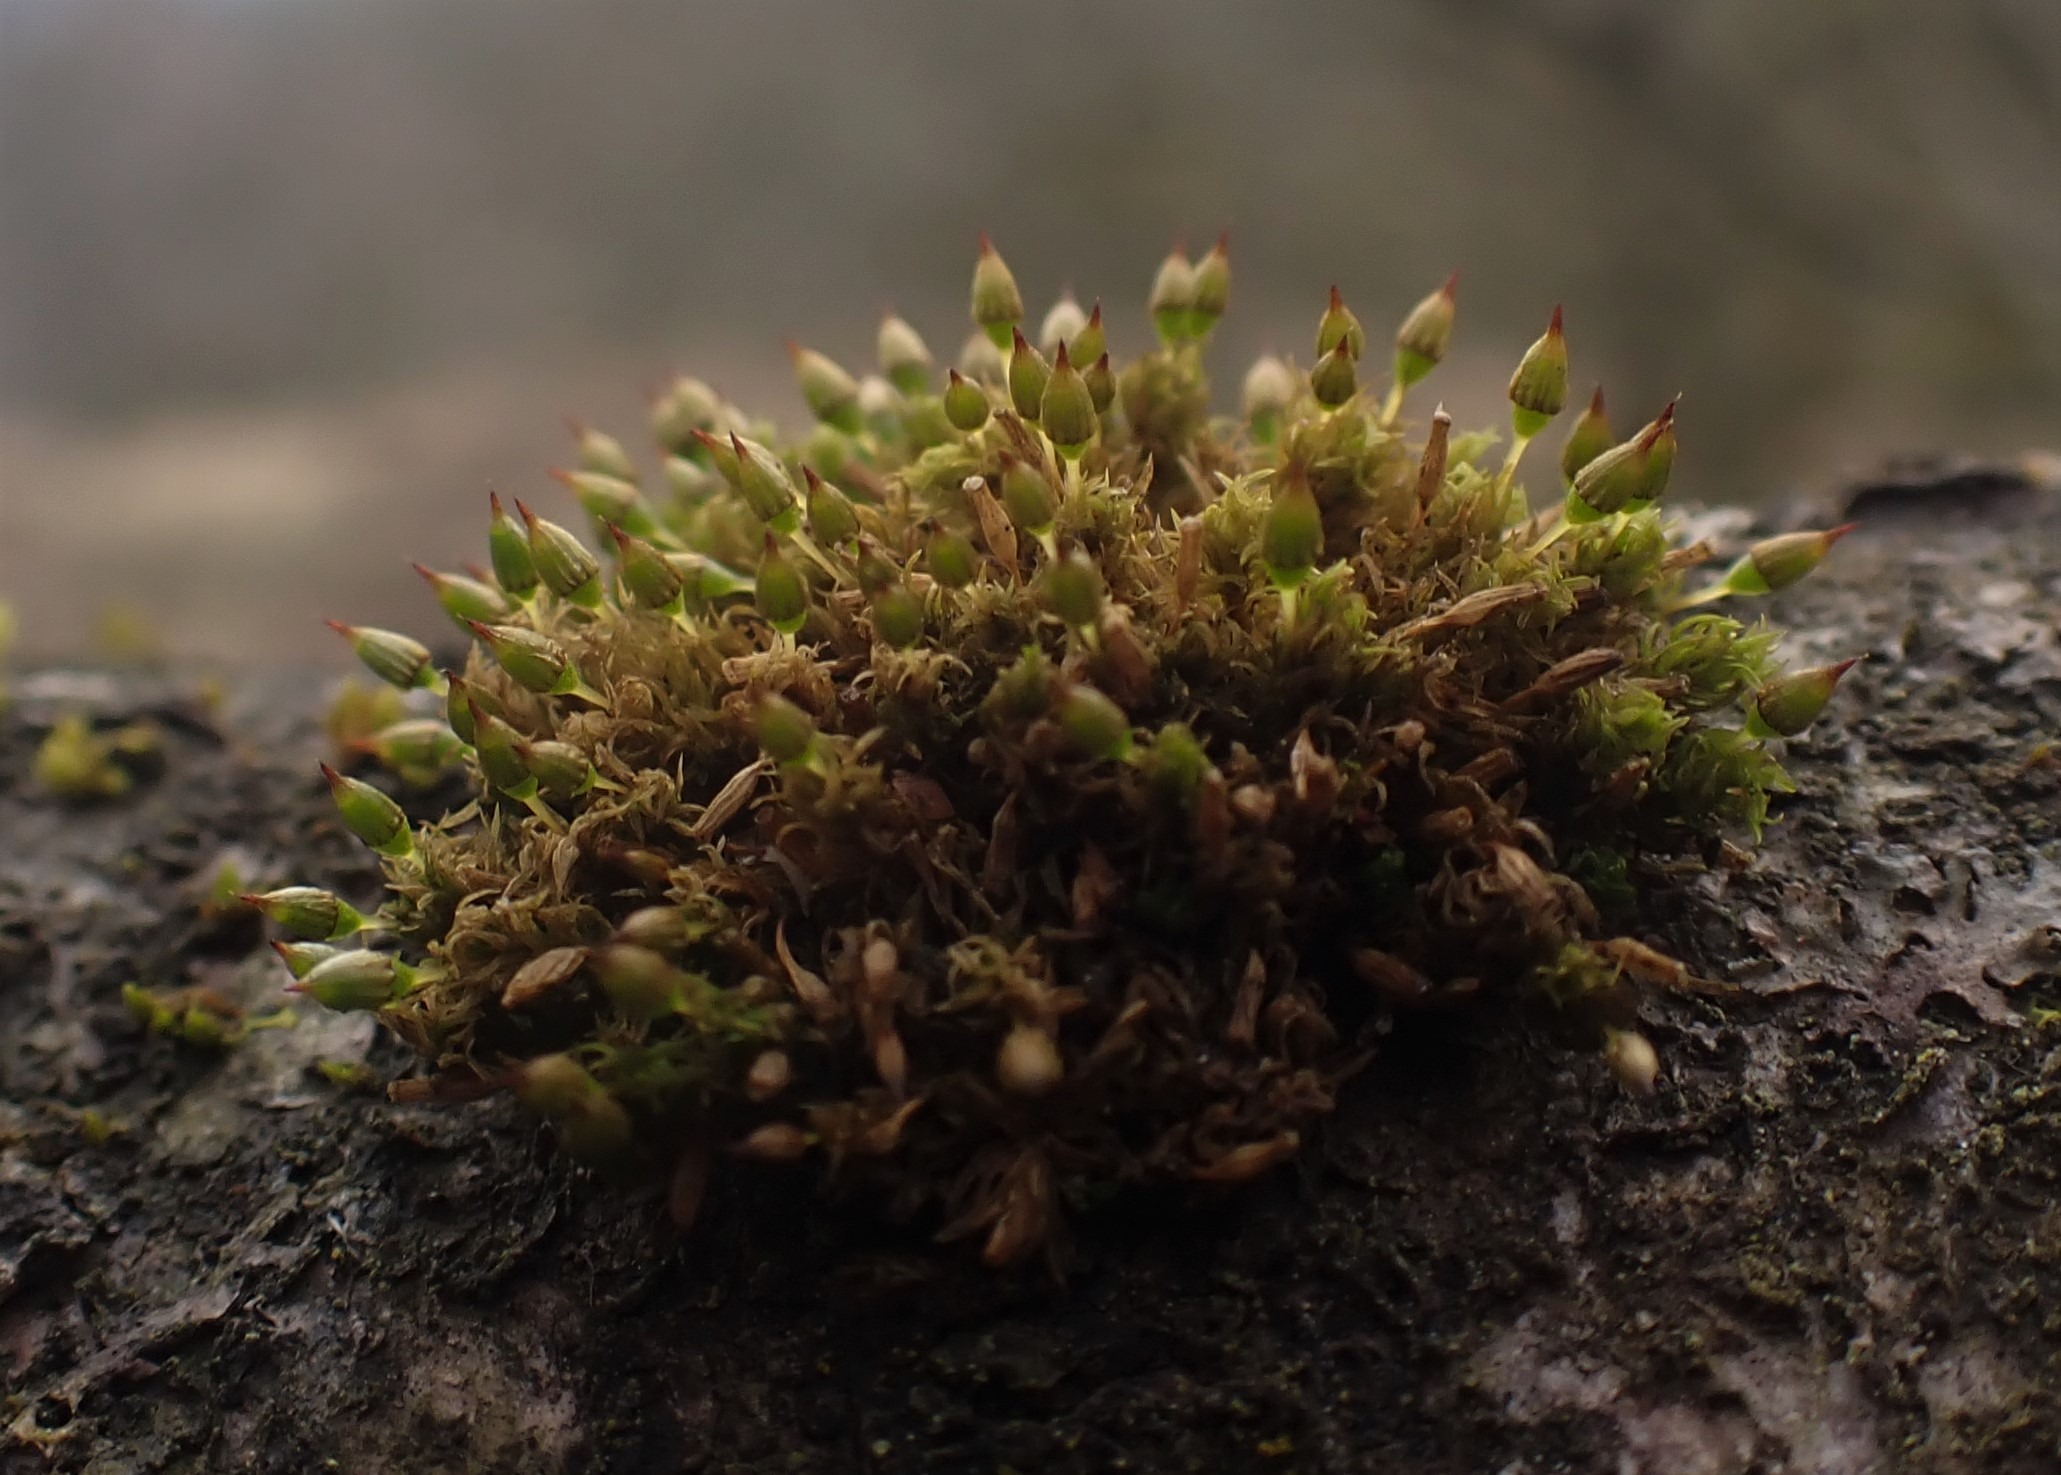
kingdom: Plantae
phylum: Bryophyta
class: Bryopsida
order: Orthotrichales
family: Orthotrichaceae
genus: Orthotrichum
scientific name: Orthotrichum pulchellum
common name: Smuk furehætte
